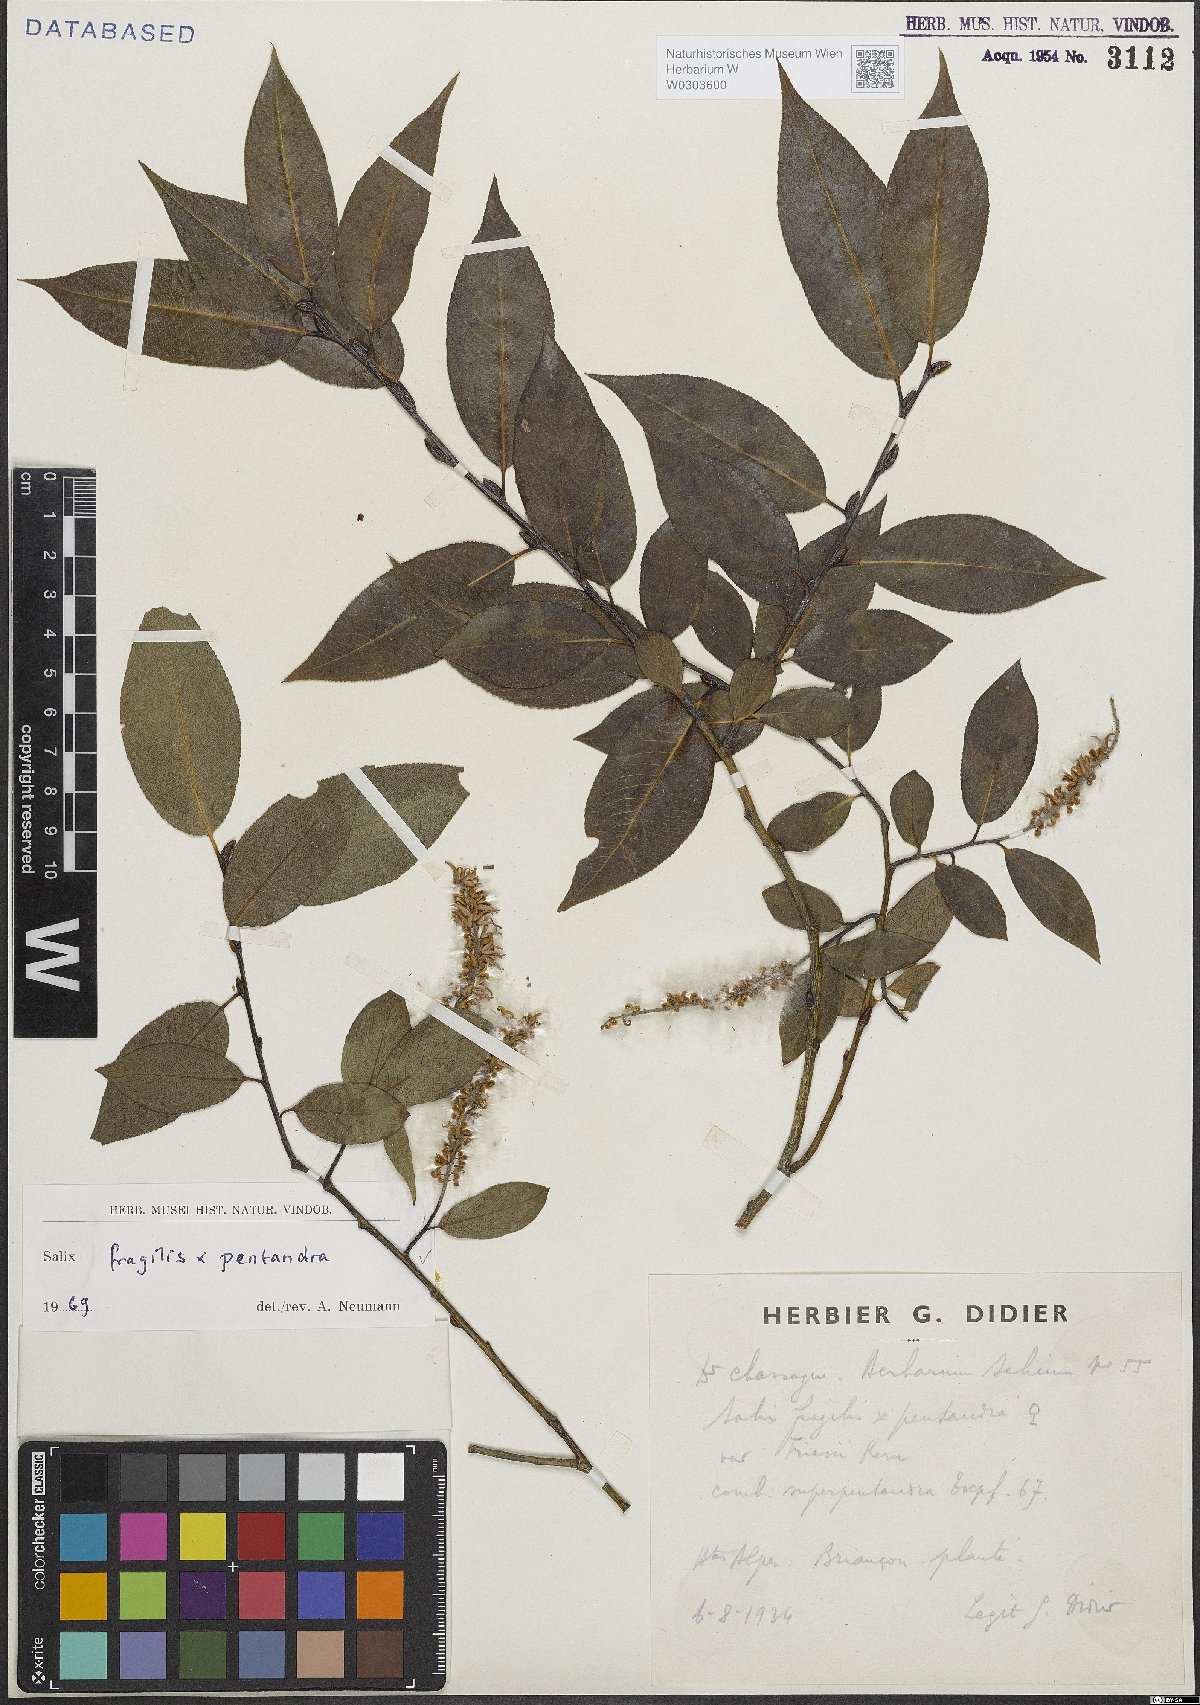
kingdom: Plantae
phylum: Tracheophyta
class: Magnoliopsida
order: Malpighiales
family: Salicaceae
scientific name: Salicaceae
